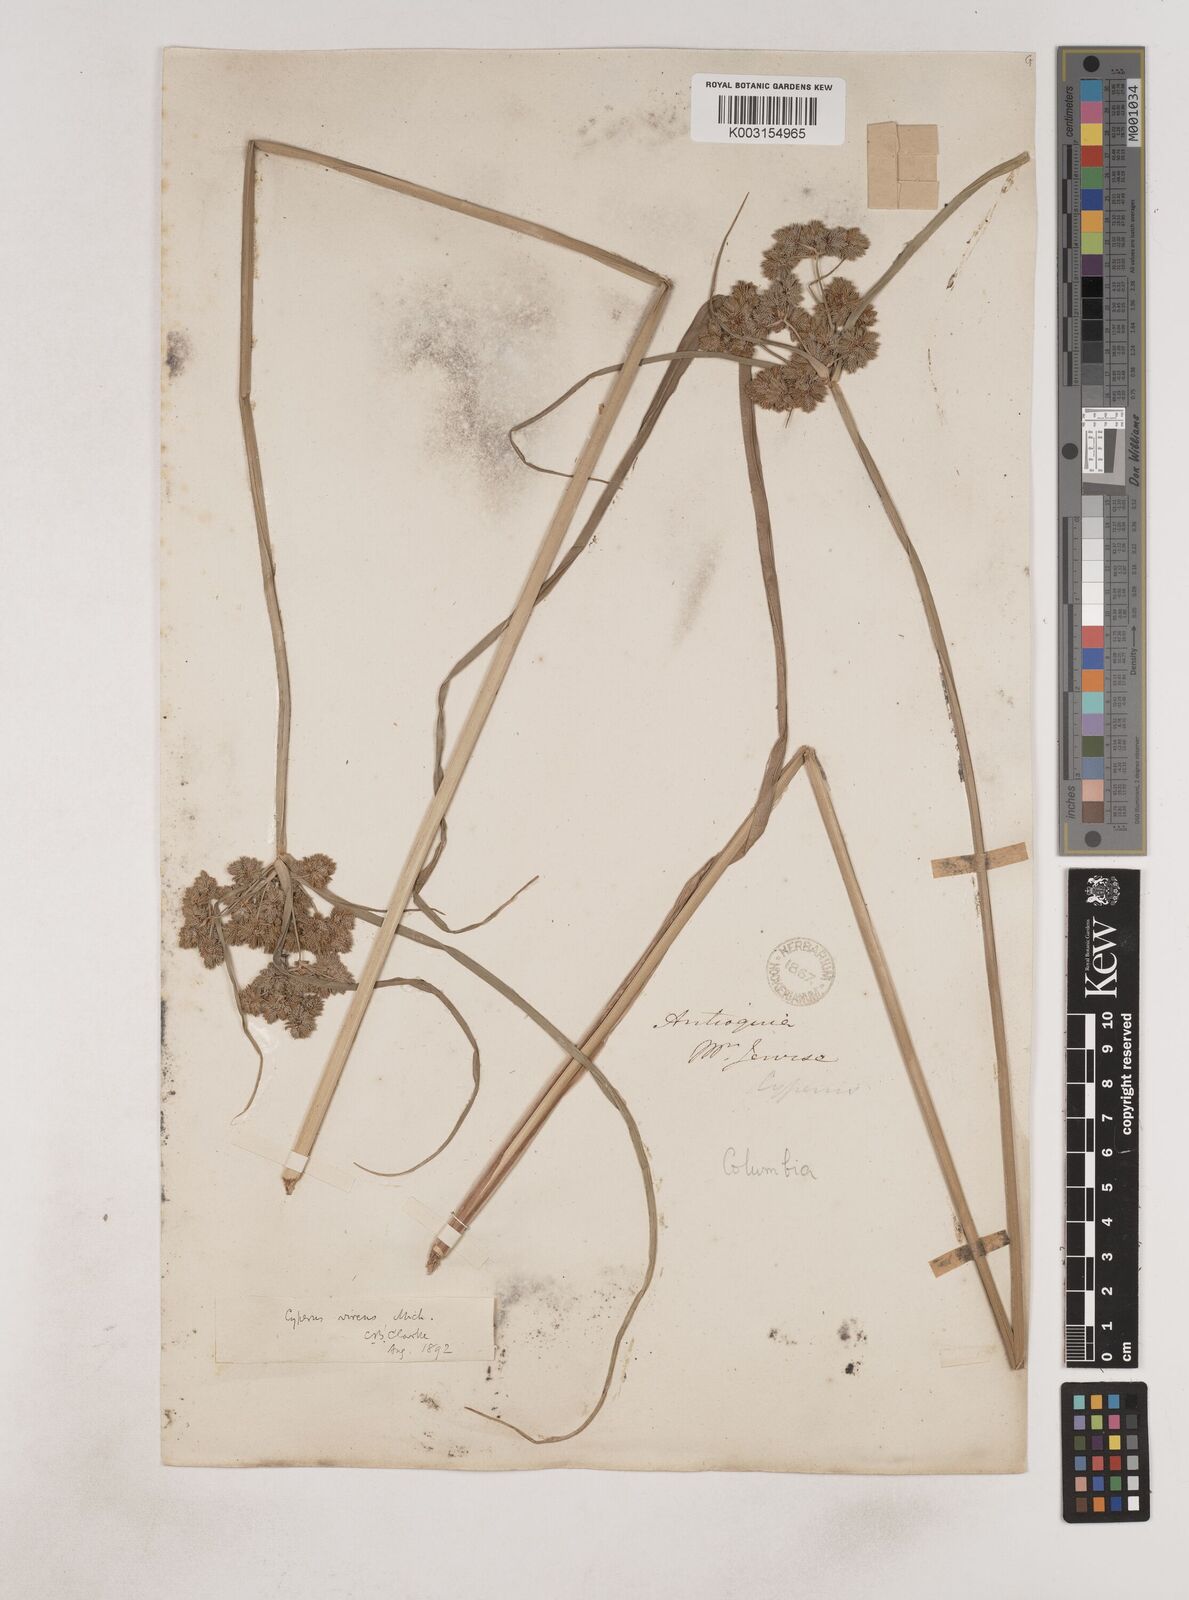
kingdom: Plantae
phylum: Tracheophyta
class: Liliopsida
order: Poales
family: Cyperaceae
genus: Cyperus
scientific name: Cyperus virens
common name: Green flatsedge
